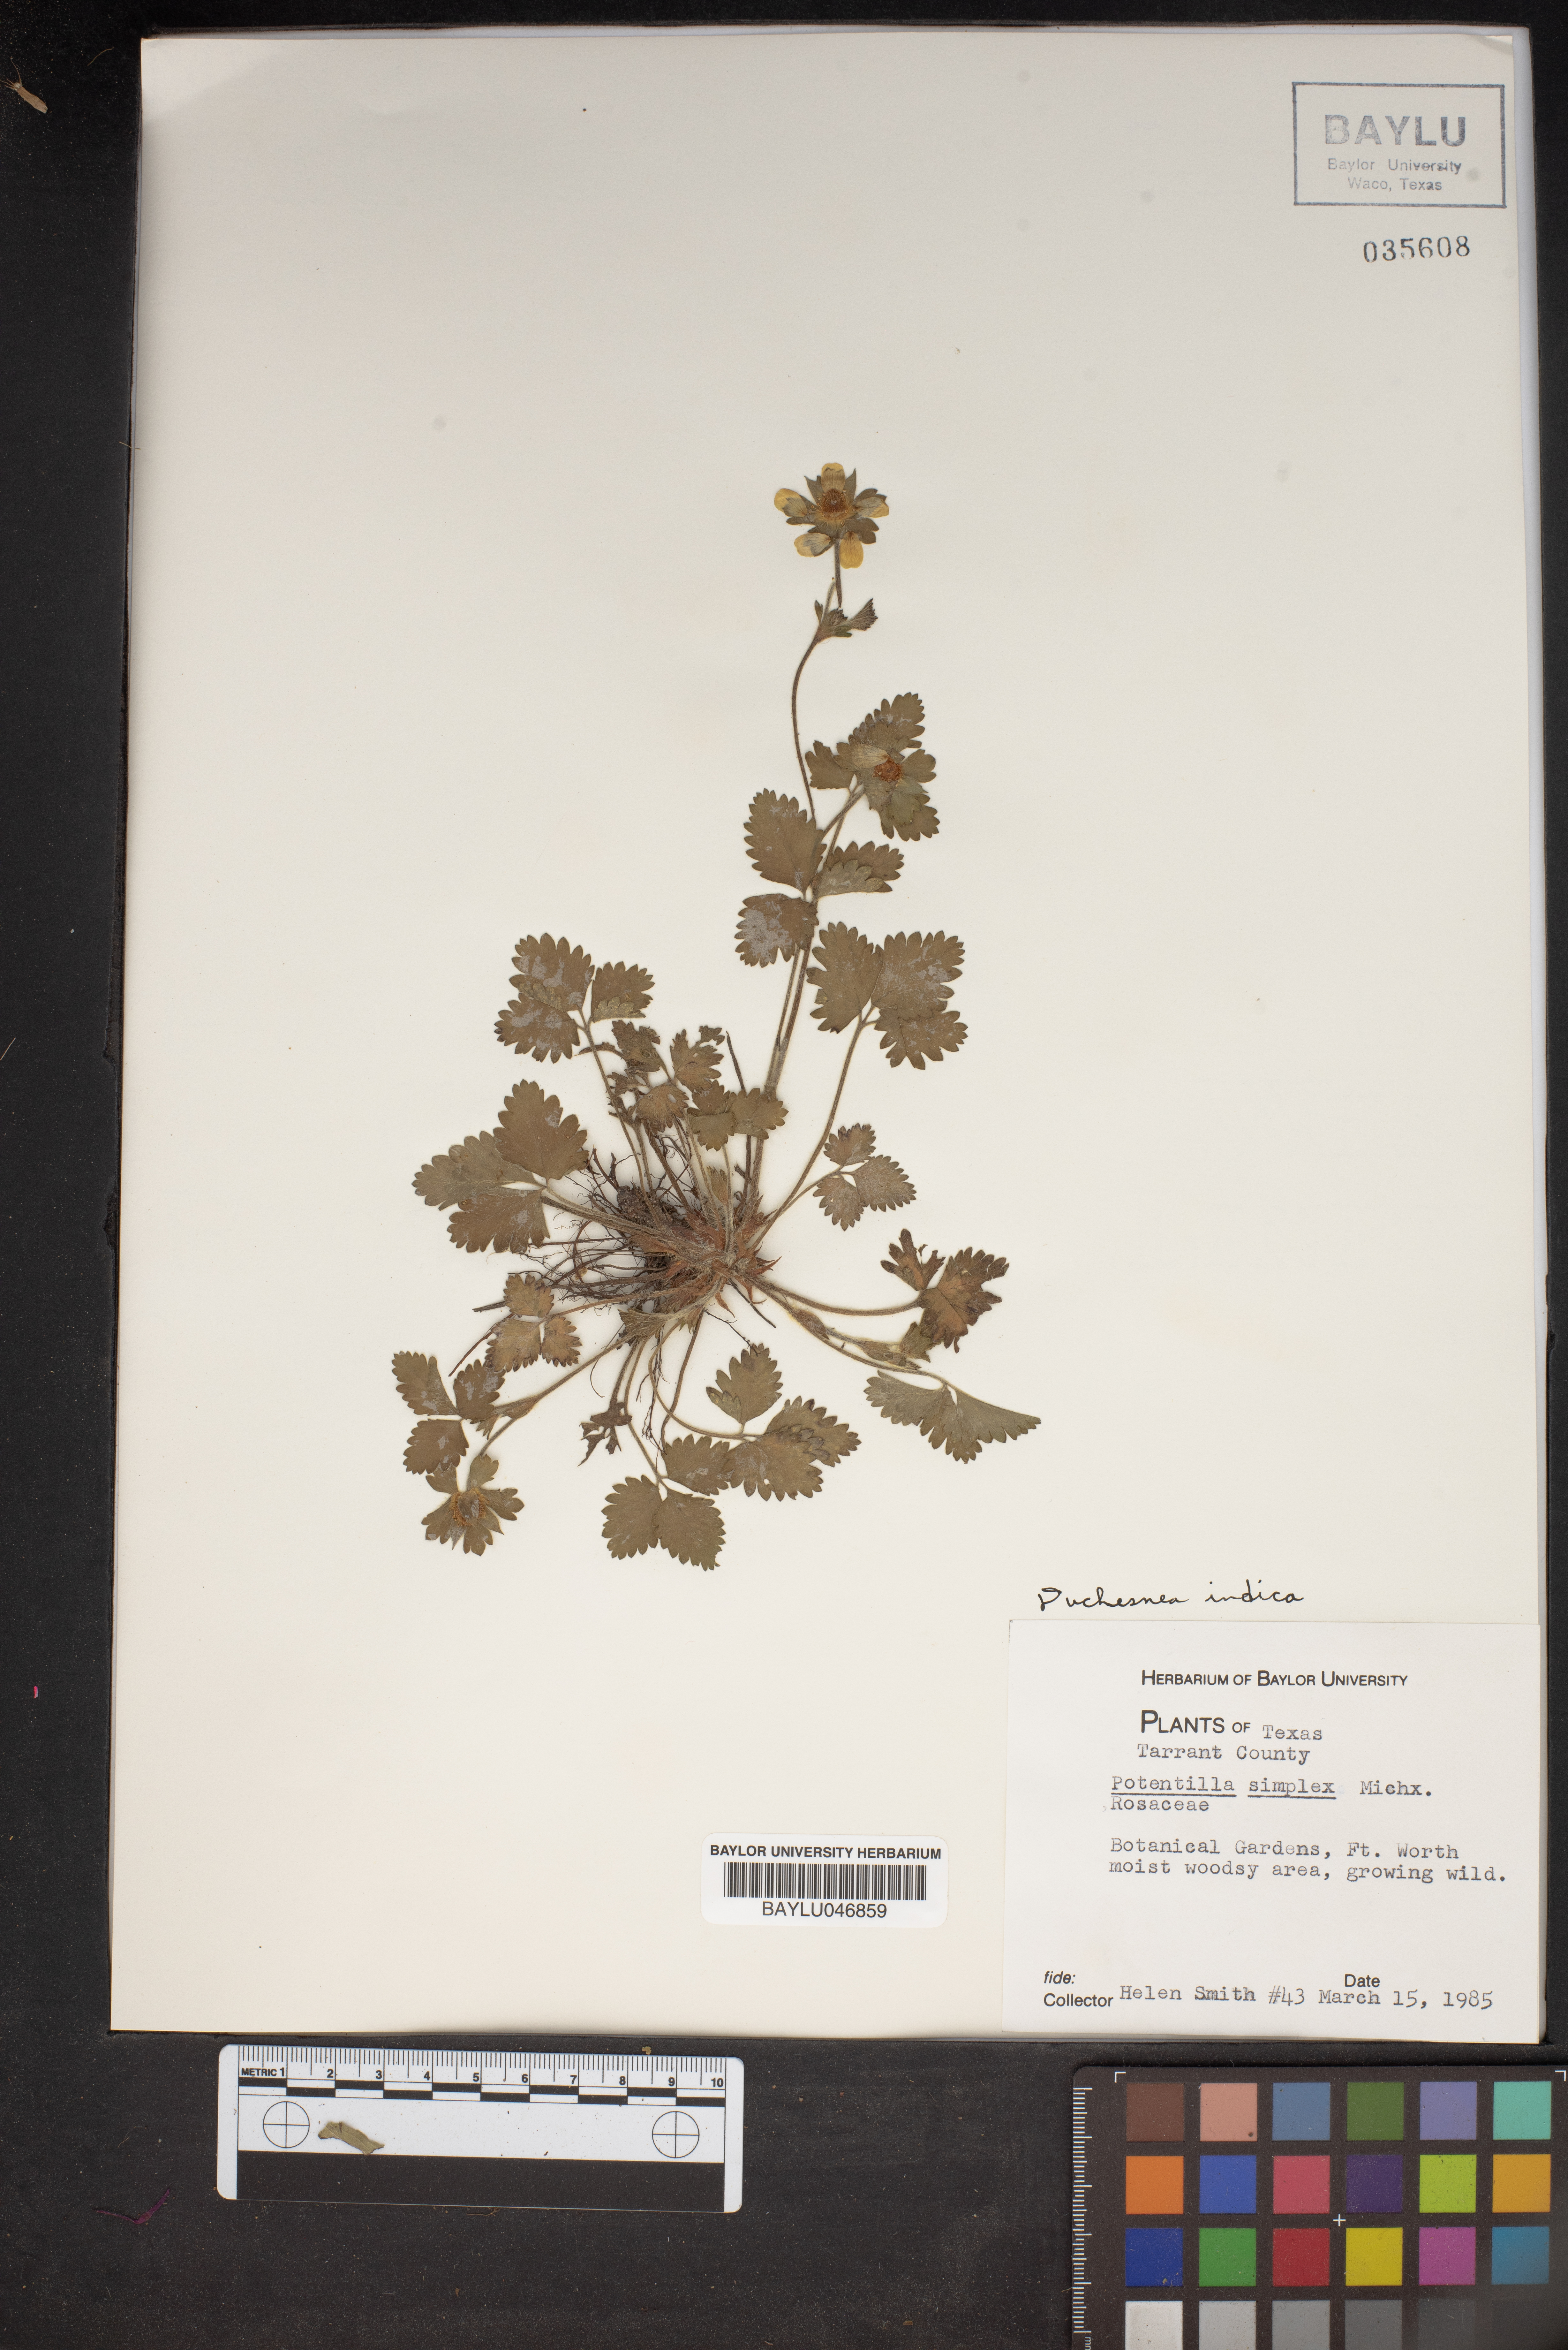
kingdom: Plantae
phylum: Tracheophyta
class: Magnoliopsida
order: Rosales
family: Rosaceae
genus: Potentilla
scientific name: Potentilla simplex
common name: Old field cinquefoil
